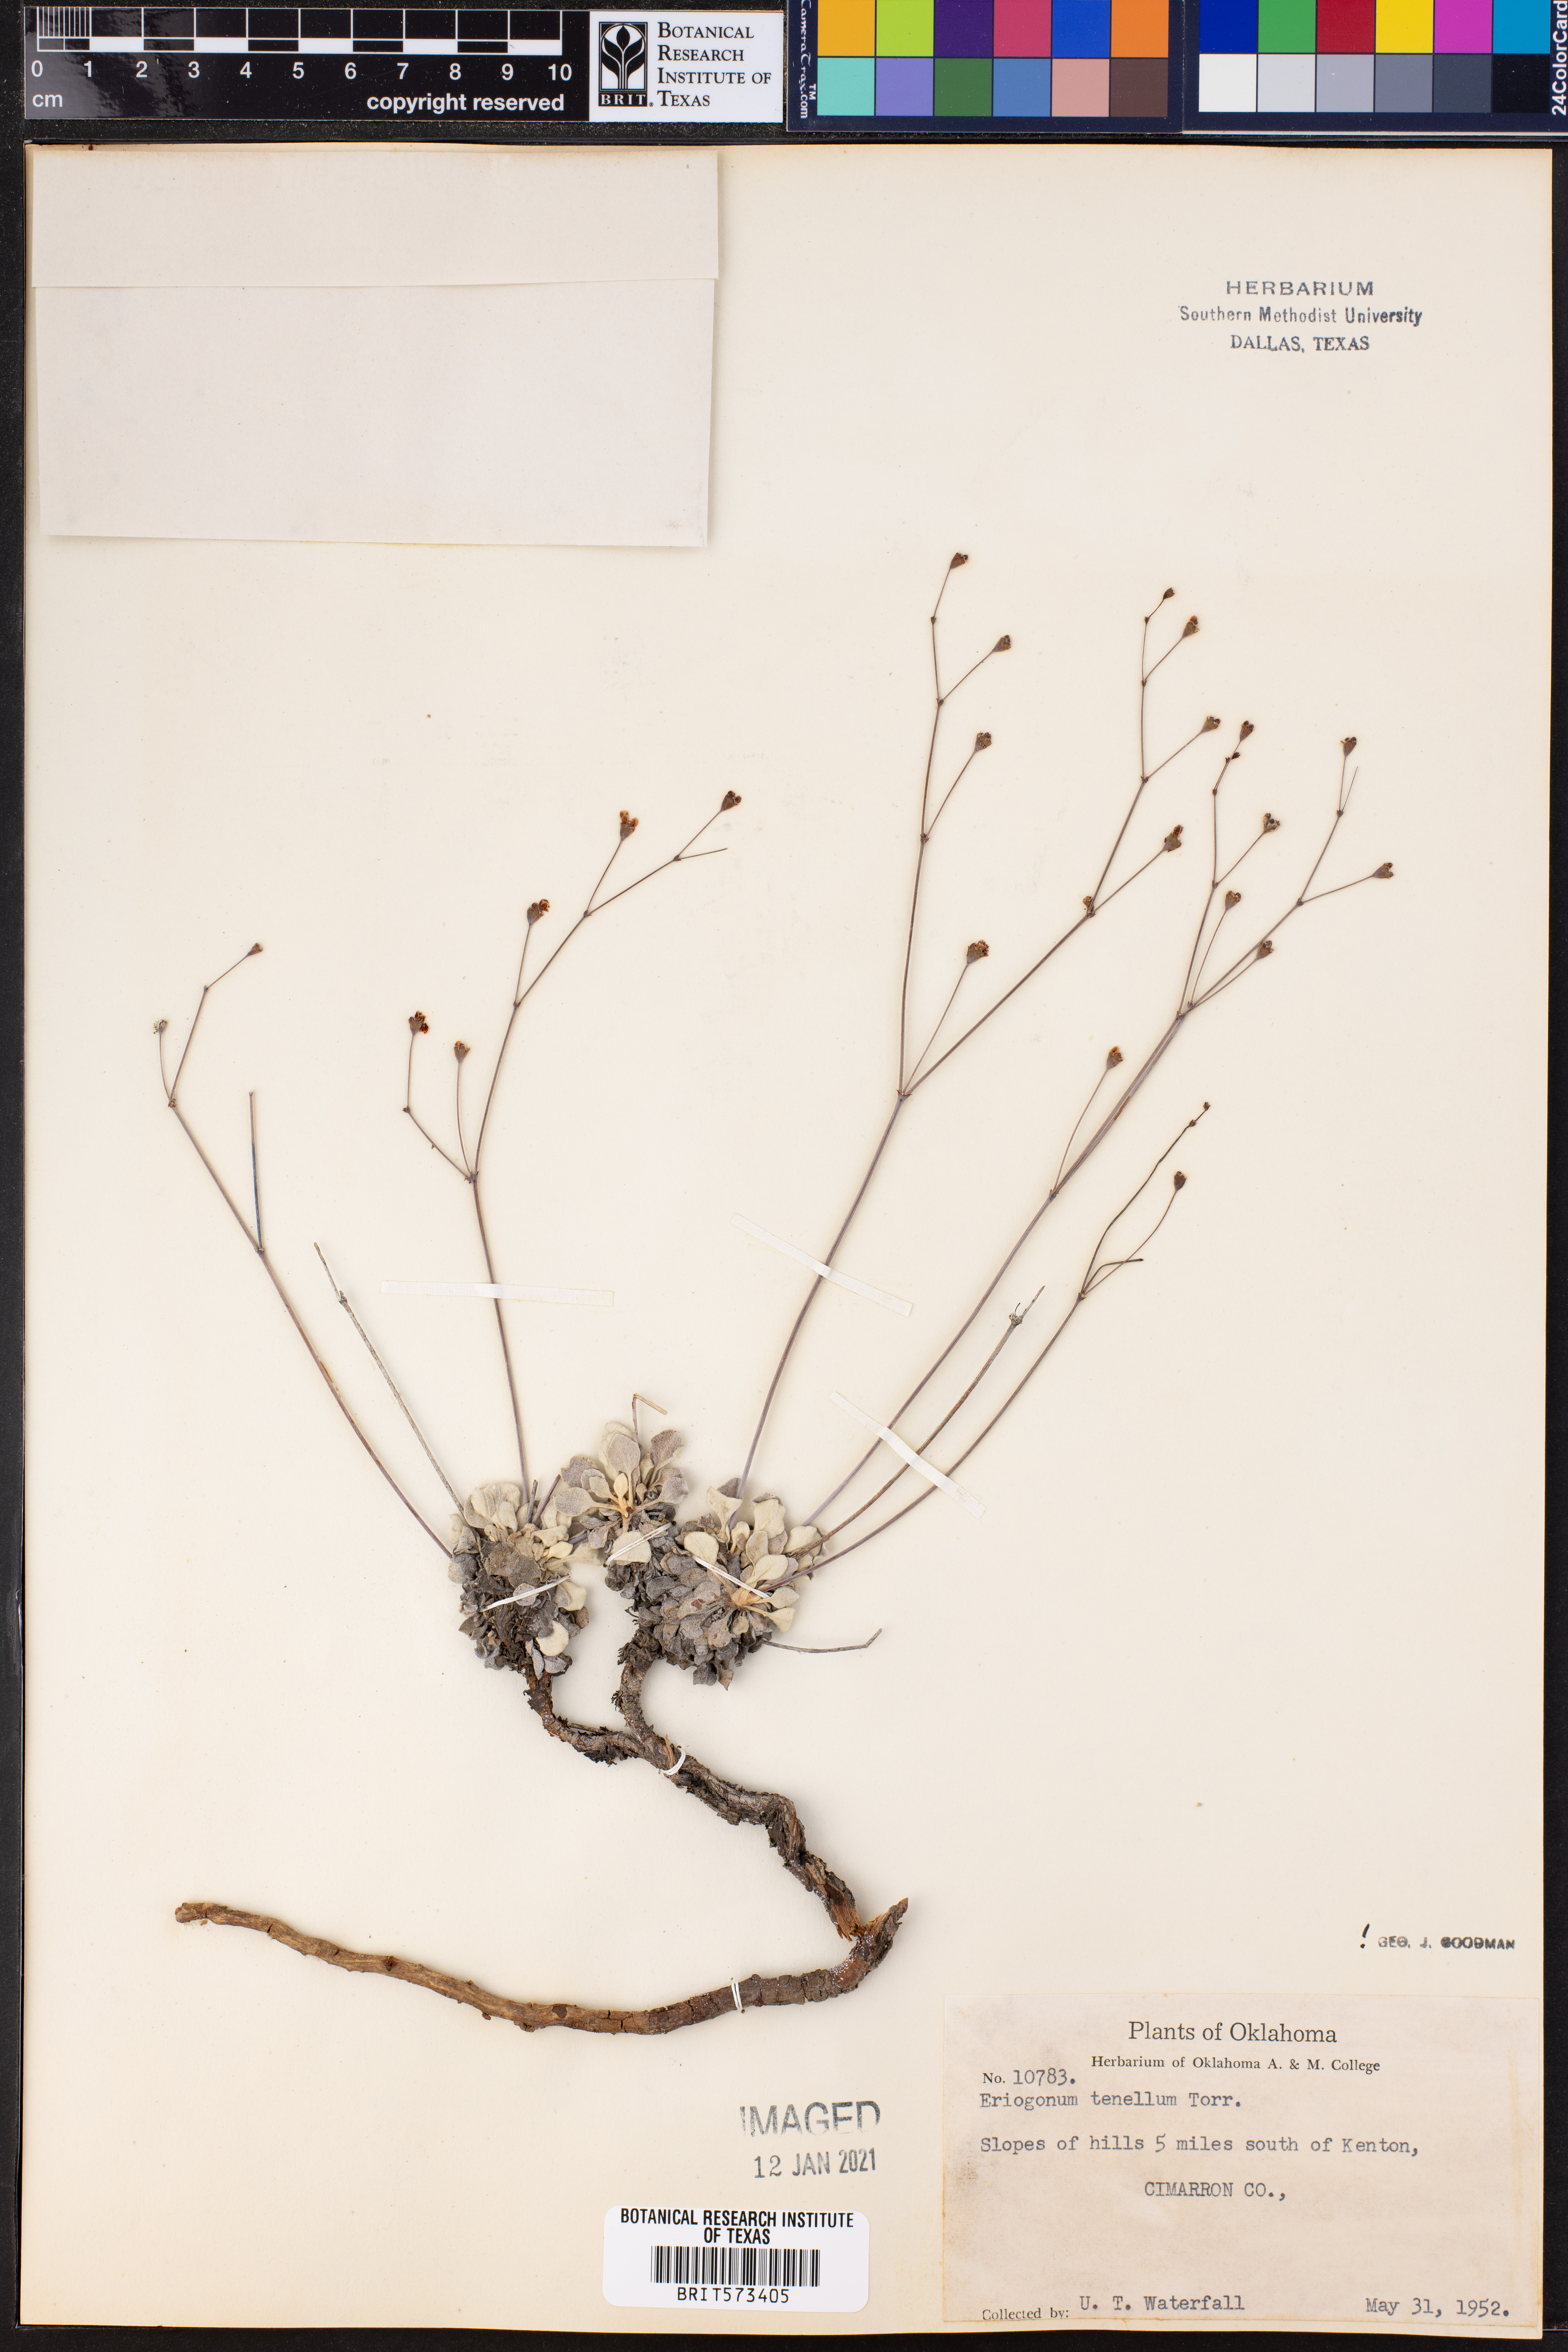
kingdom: Plantae
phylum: Tracheophyta
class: Magnoliopsida
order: Caryophyllales
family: Polygonaceae
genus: Eriogonum
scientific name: Eriogonum tenellum
